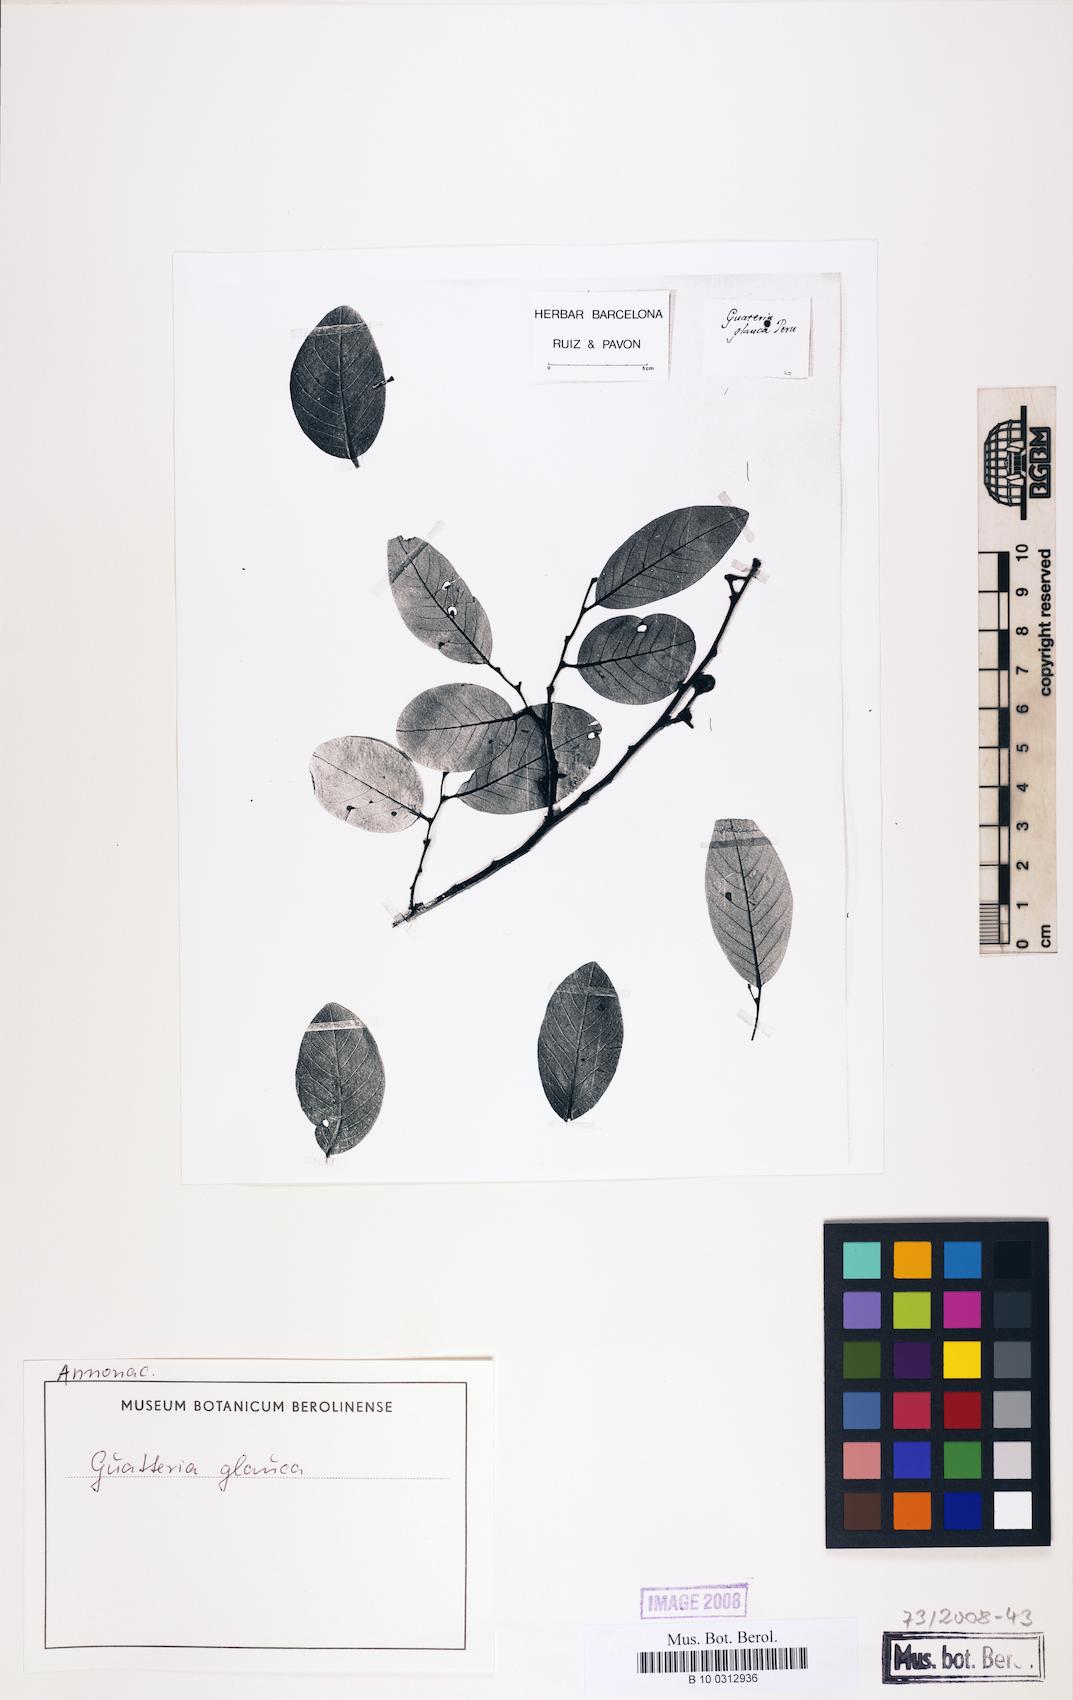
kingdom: Plantae
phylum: Tracheophyta
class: Magnoliopsida
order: Magnoliales
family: Annonaceae
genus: Ruizodendron
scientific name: Ruizodendron ovale
